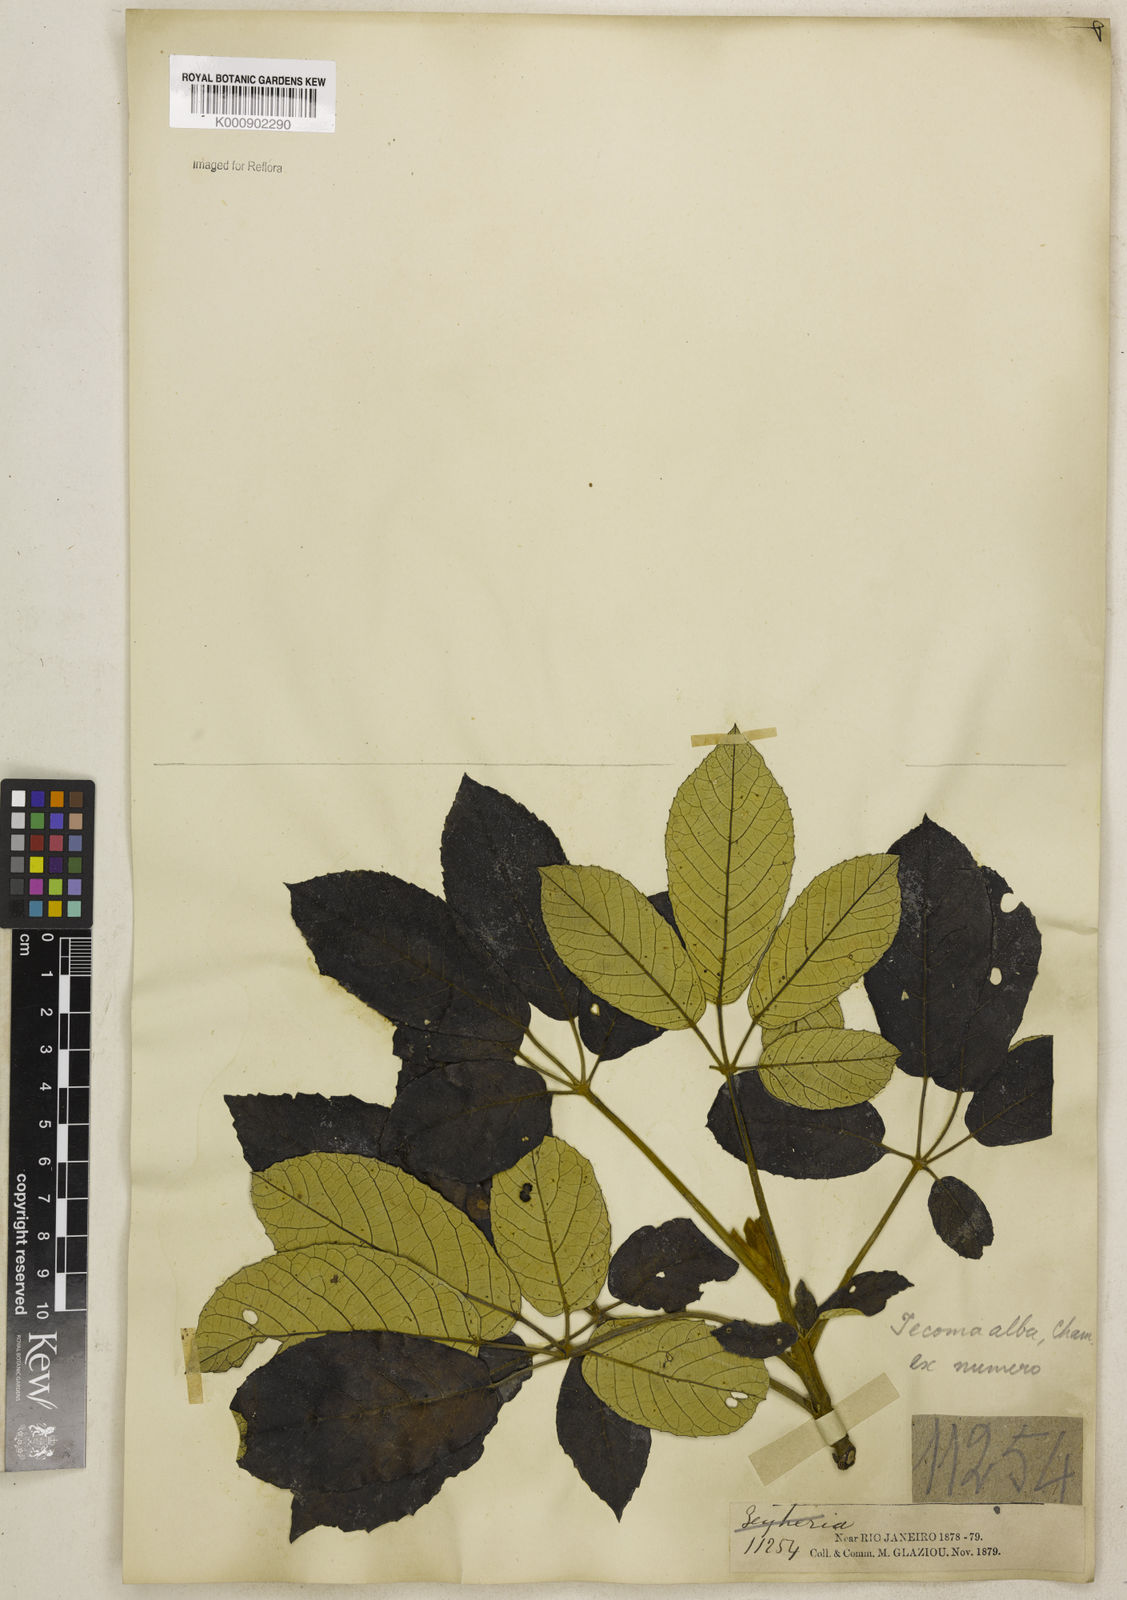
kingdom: Plantae
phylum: Tracheophyta
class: Magnoliopsida
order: Lamiales
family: Bignoniaceae
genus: Handroanthus
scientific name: Handroanthus albus
